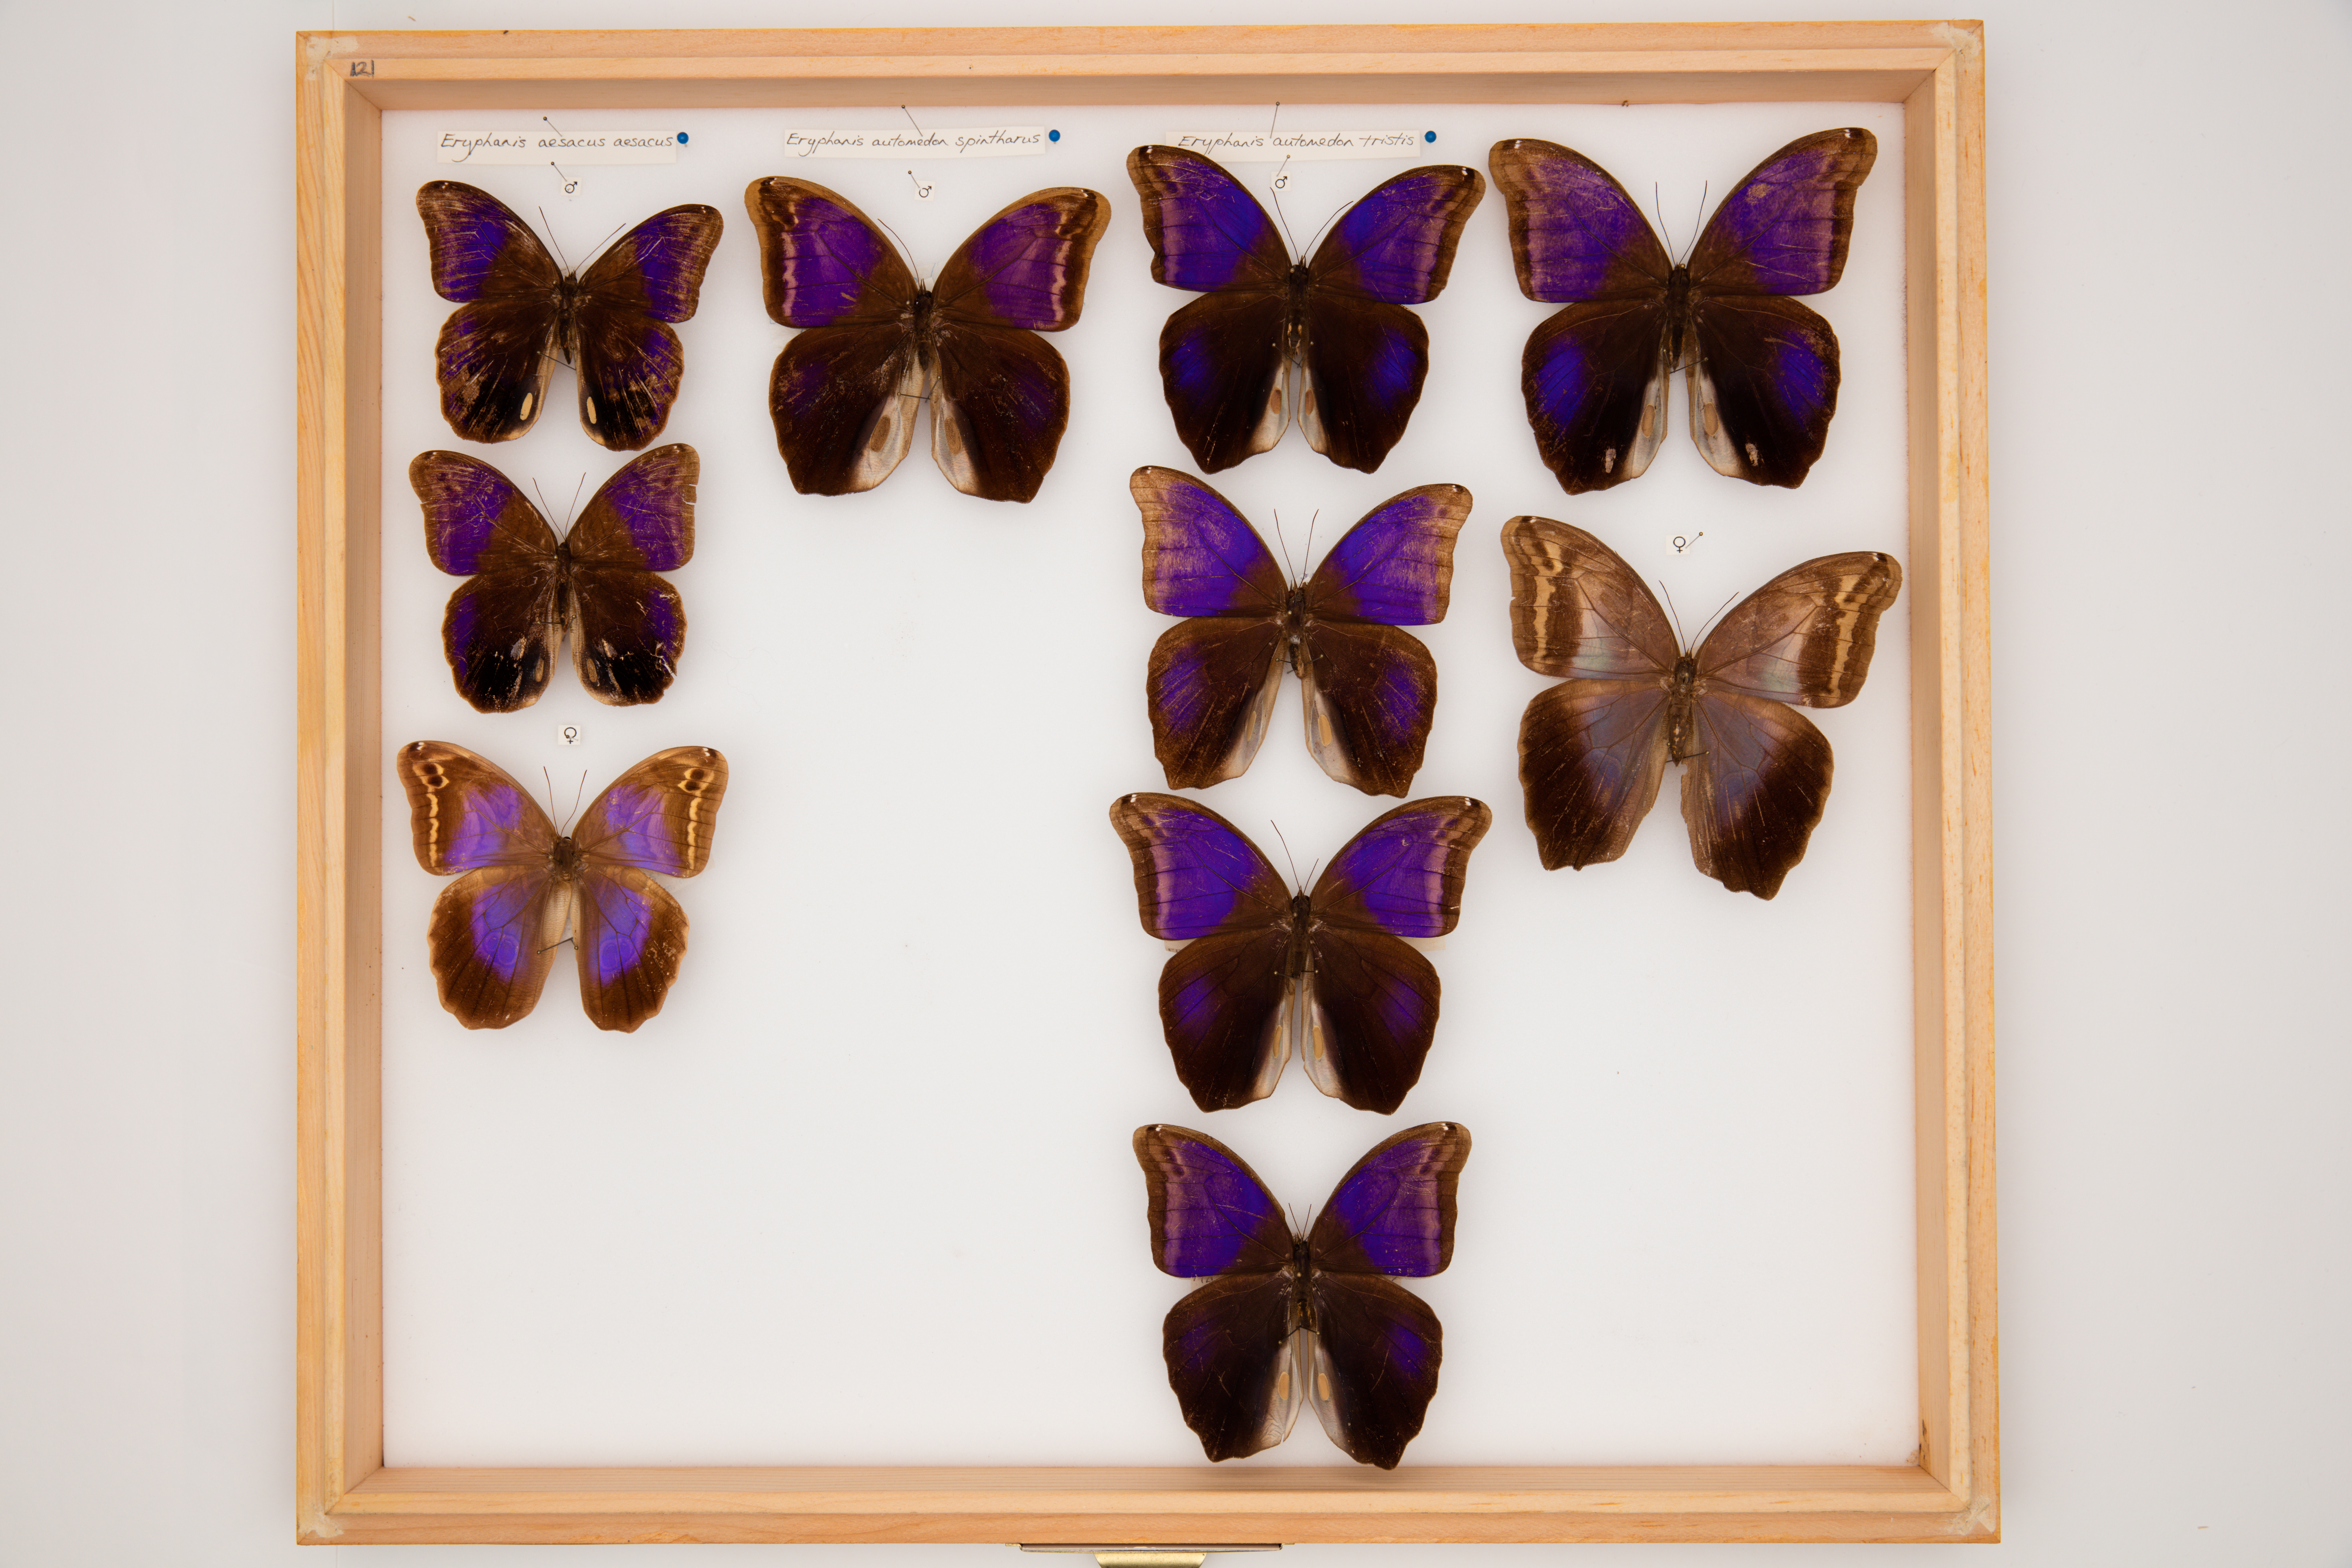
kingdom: Animalia
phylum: Arthropoda
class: Insecta
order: Lepidoptera
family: Nymphalidae
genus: Eryphanis
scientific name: Eryphanis polyxena
